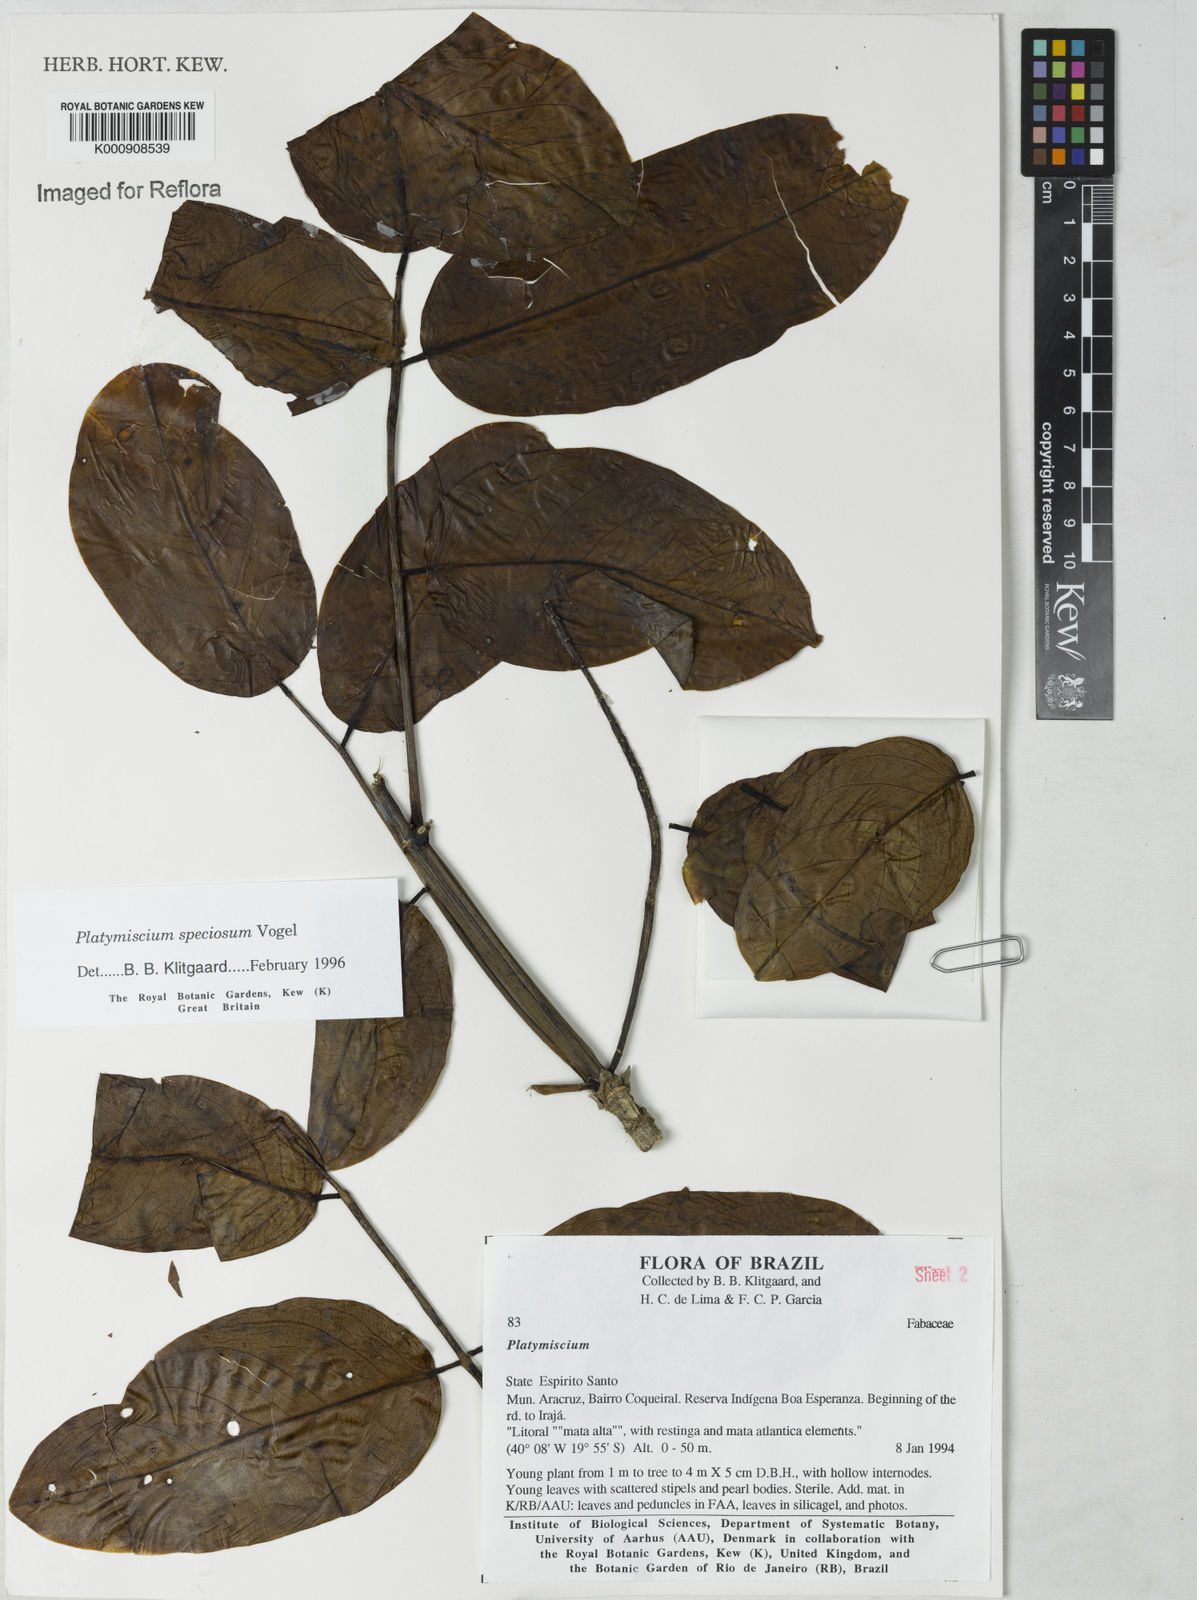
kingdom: Plantae
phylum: Tracheophyta
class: Magnoliopsida
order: Fabales
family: Fabaceae
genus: Platymiscium
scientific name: Platymiscium speciosum
